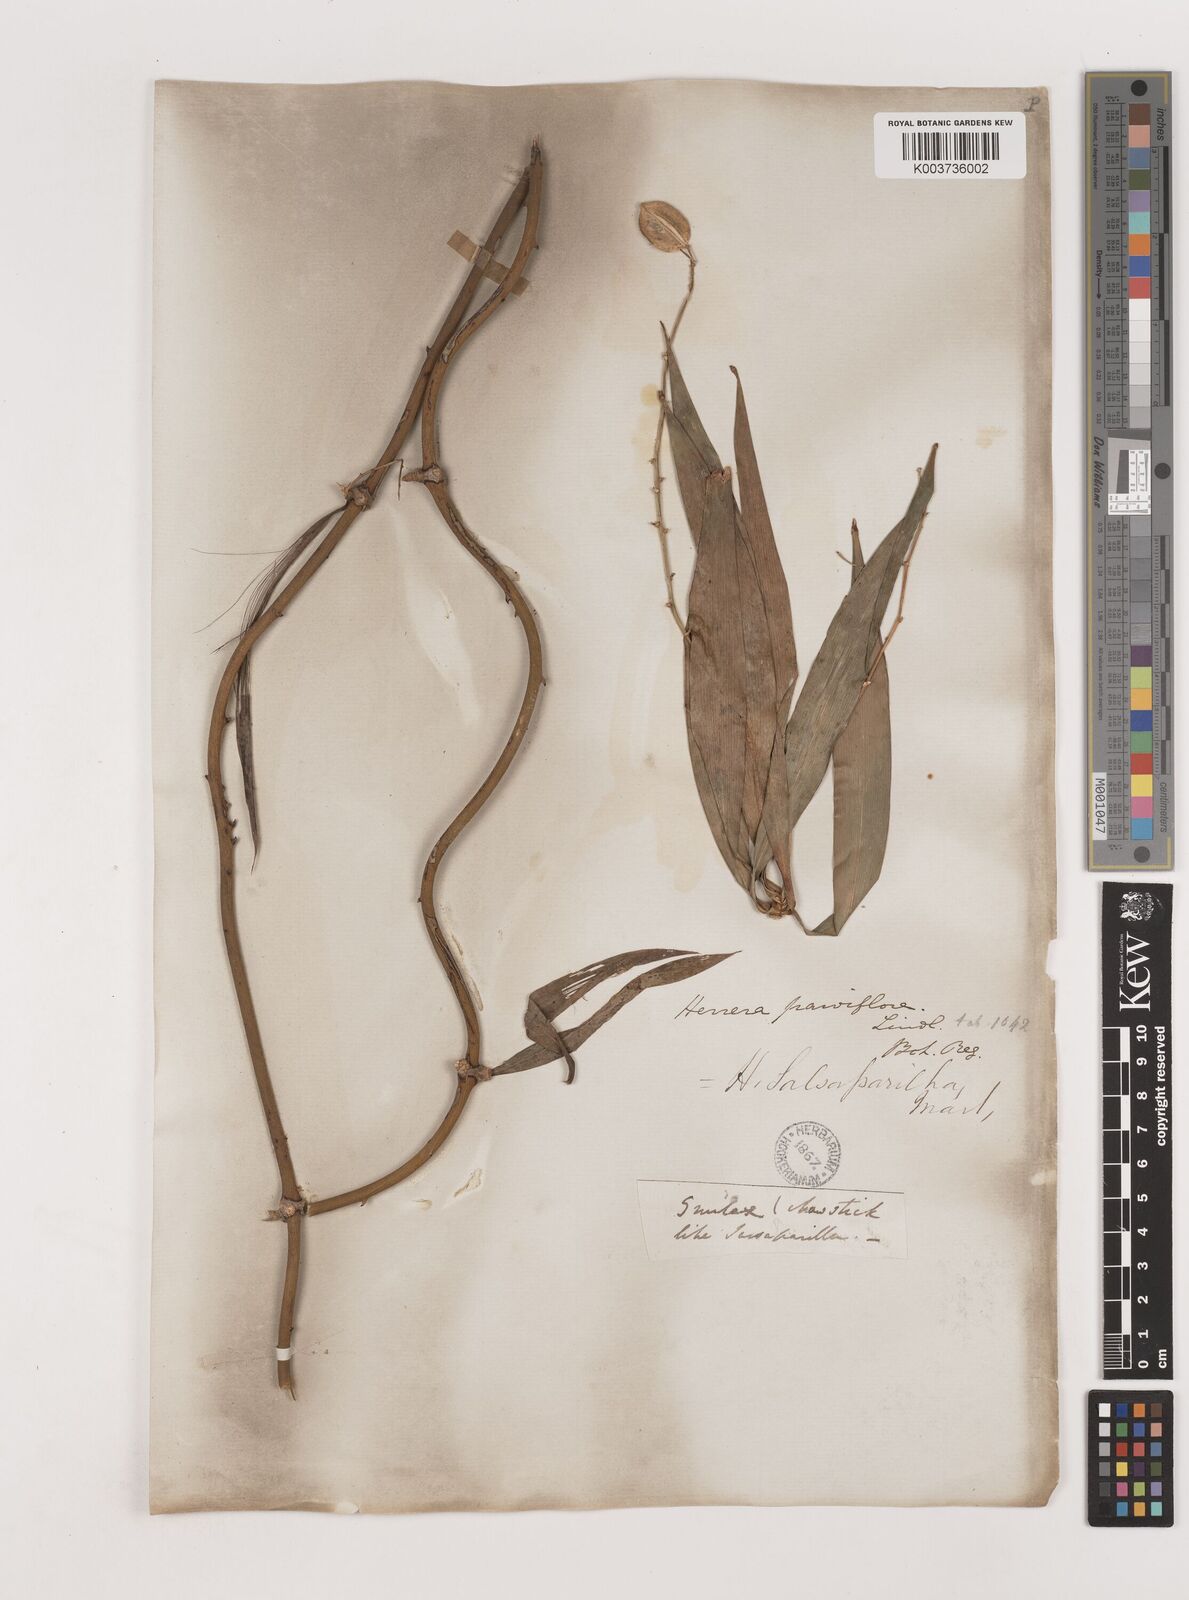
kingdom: Plantae
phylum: Tracheophyta
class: Liliopsida
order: Asparagales
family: Asparagaceae
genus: Herreria
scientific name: Herreria salsaparilha
